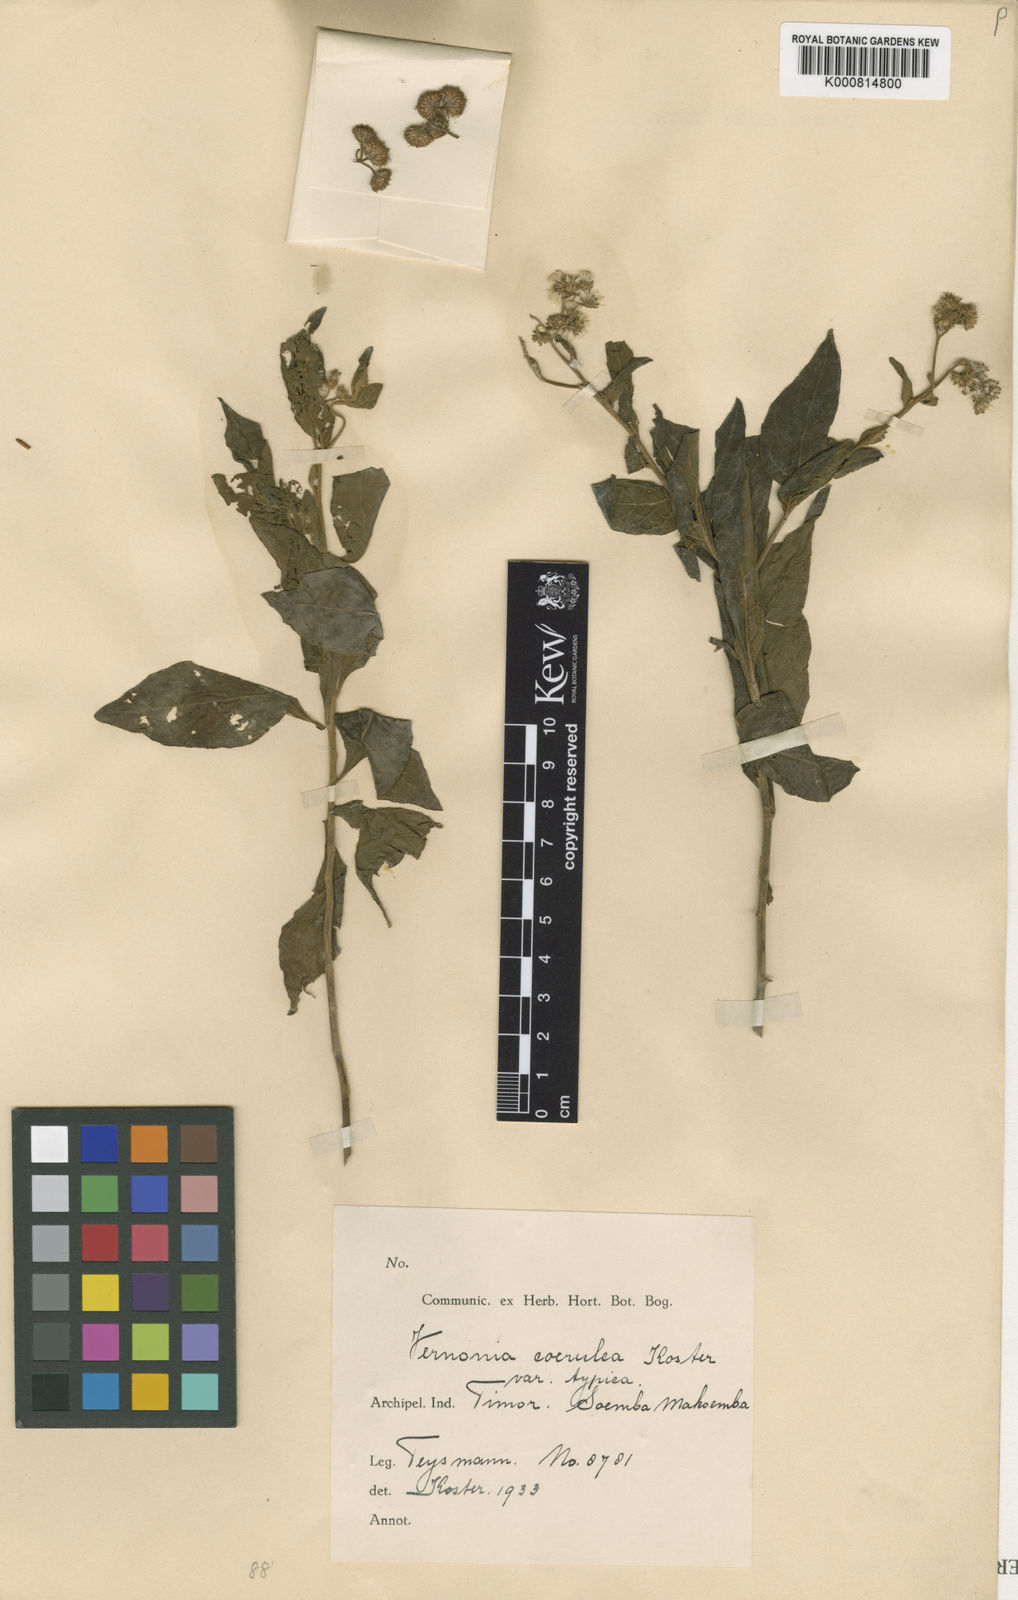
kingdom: Plantae
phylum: Tracheophyta
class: Magnoliopsida
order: Asterales
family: Asteraceae
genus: Vernonia
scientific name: Vernonia coerulea
